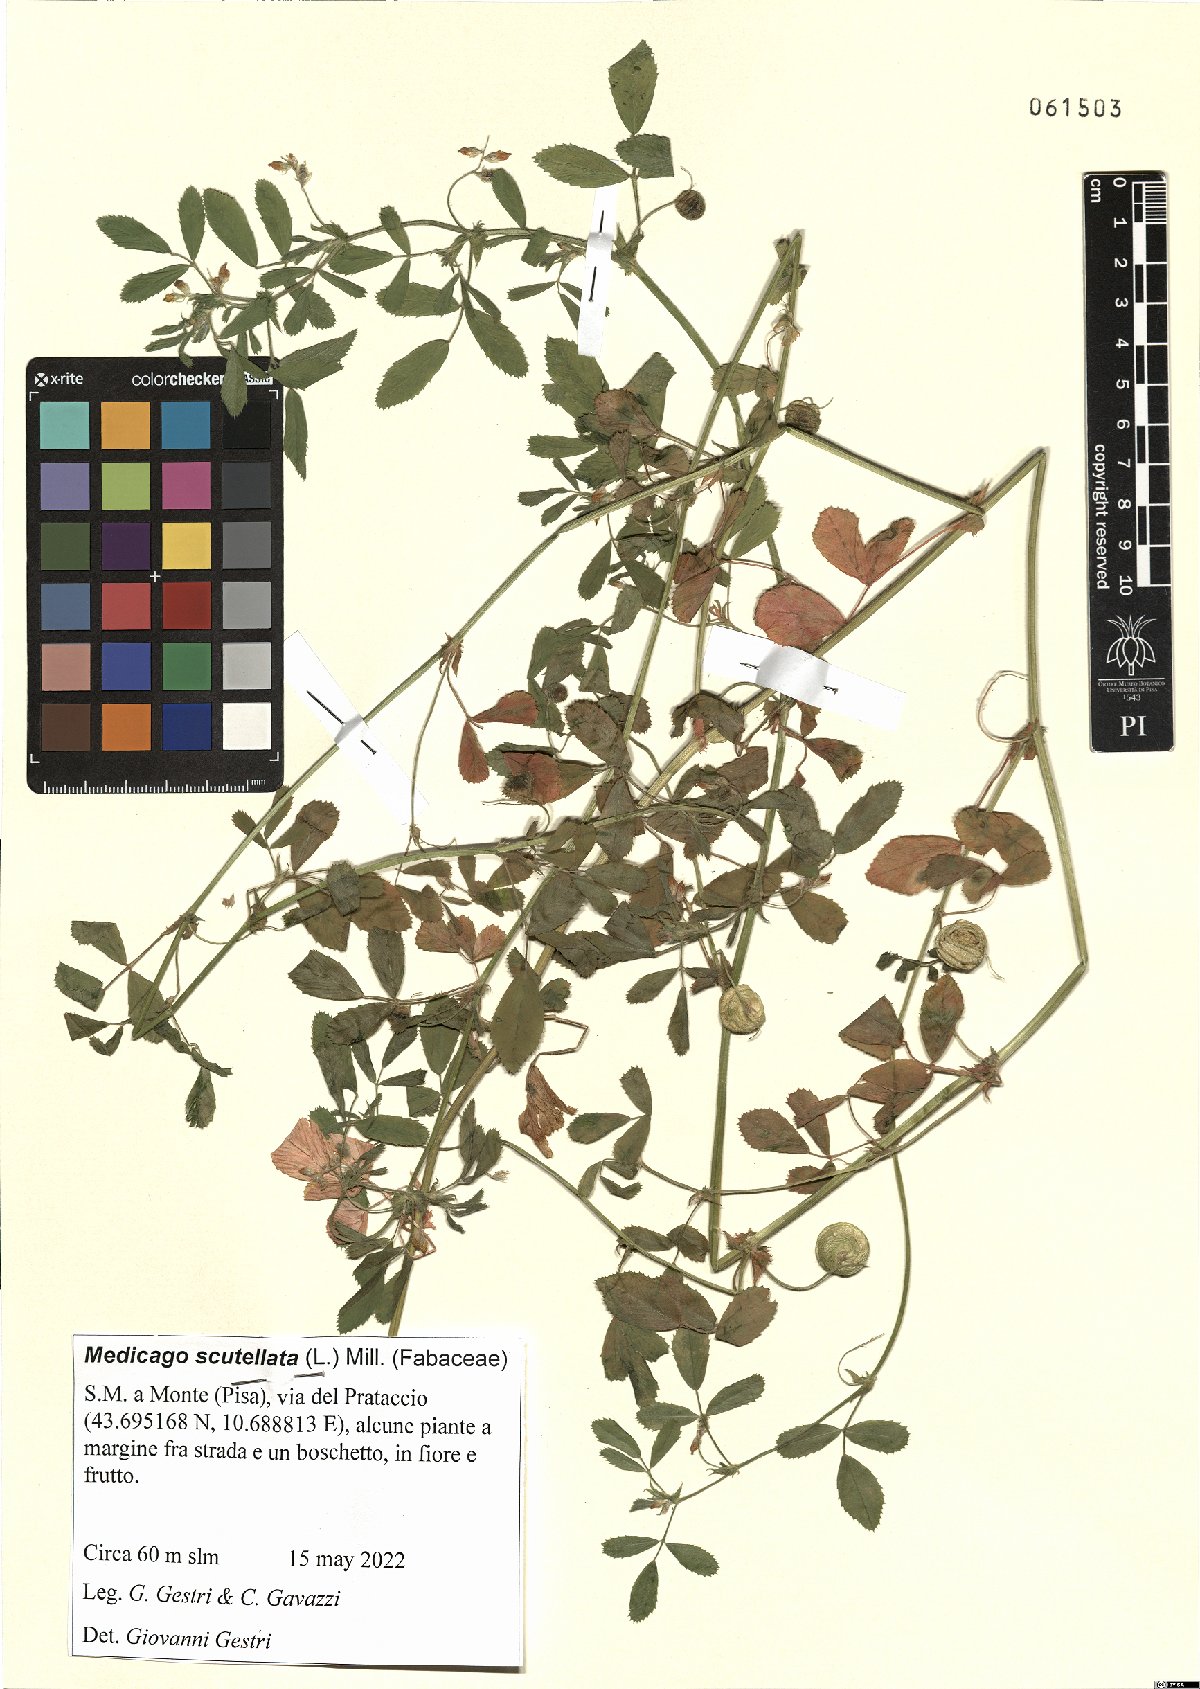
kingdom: Plantae
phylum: Tracheophyta
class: Magnoliopsida
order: Fabales
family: Fabaceae
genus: Medicago
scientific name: Medicago scutellata
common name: Snail medick
